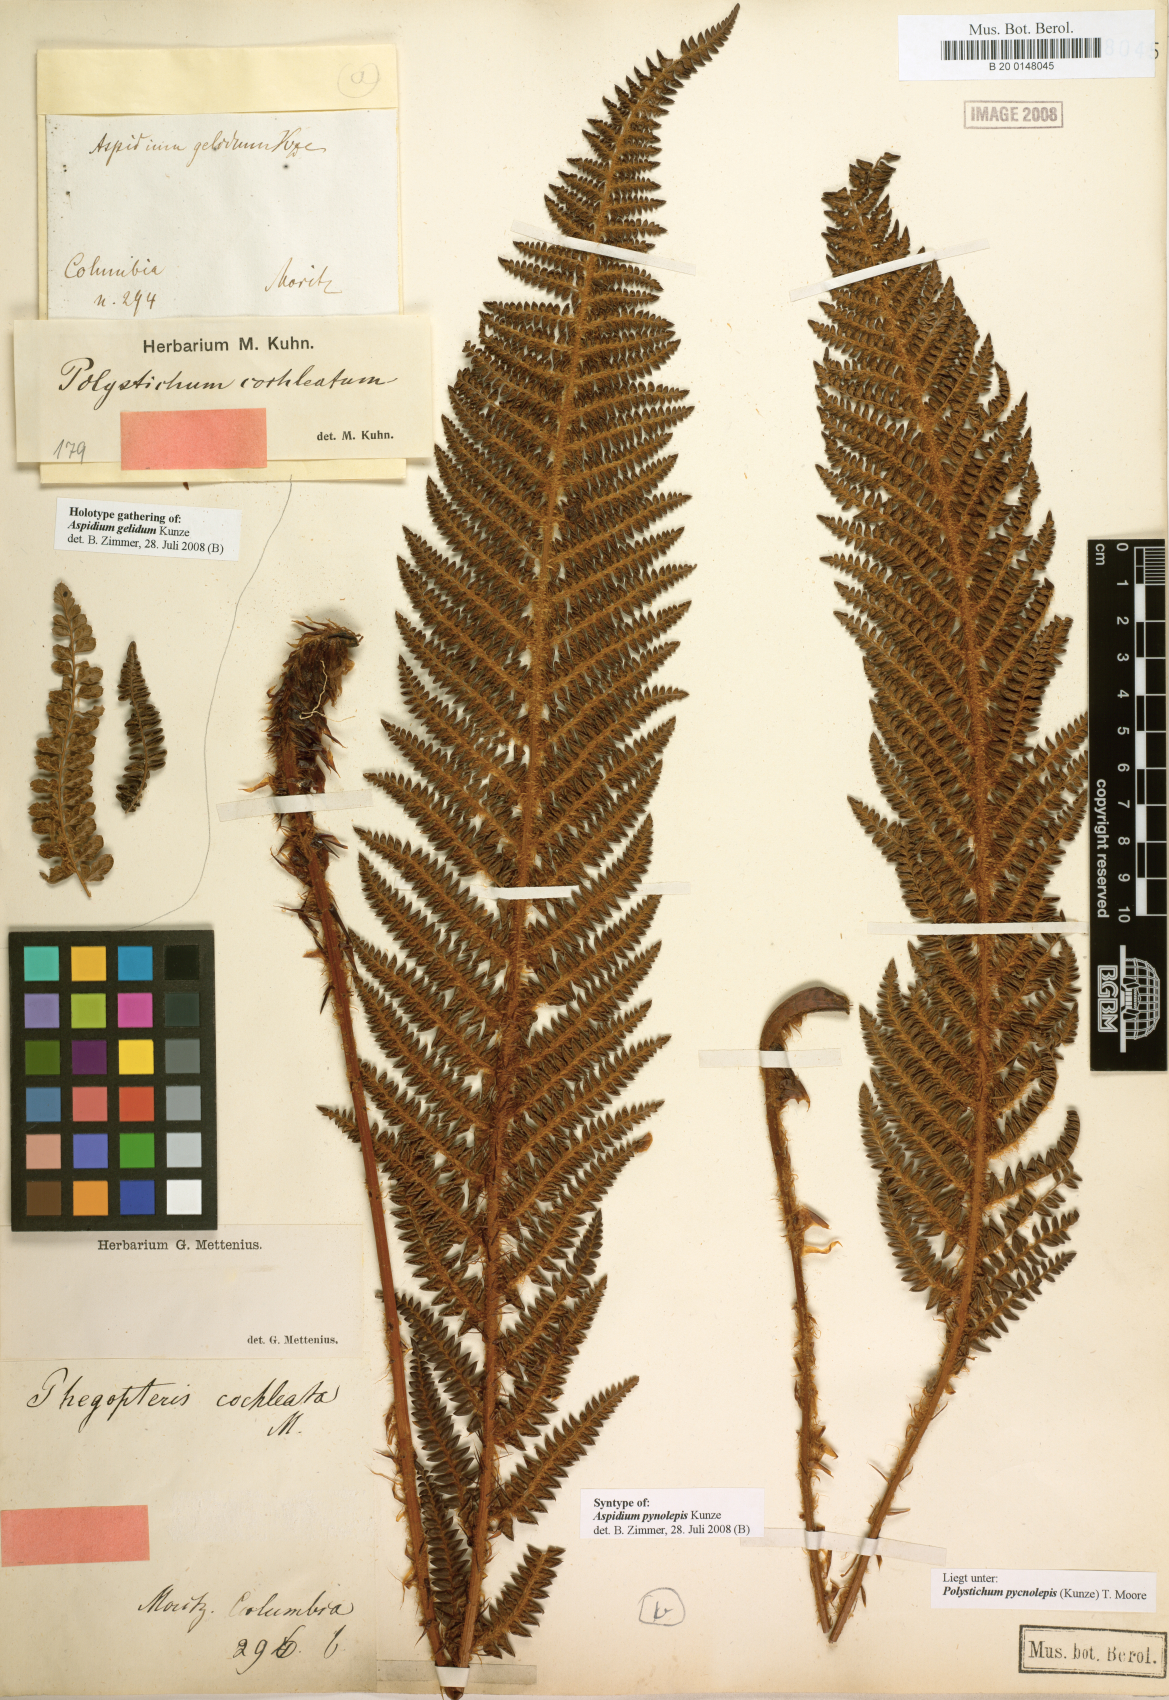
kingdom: Plantae
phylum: Tracheophyta
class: Polypodiopsida
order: Polypodiales
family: Dryopteridaceae
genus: Polystichum
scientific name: Polystichum orbiculatum
